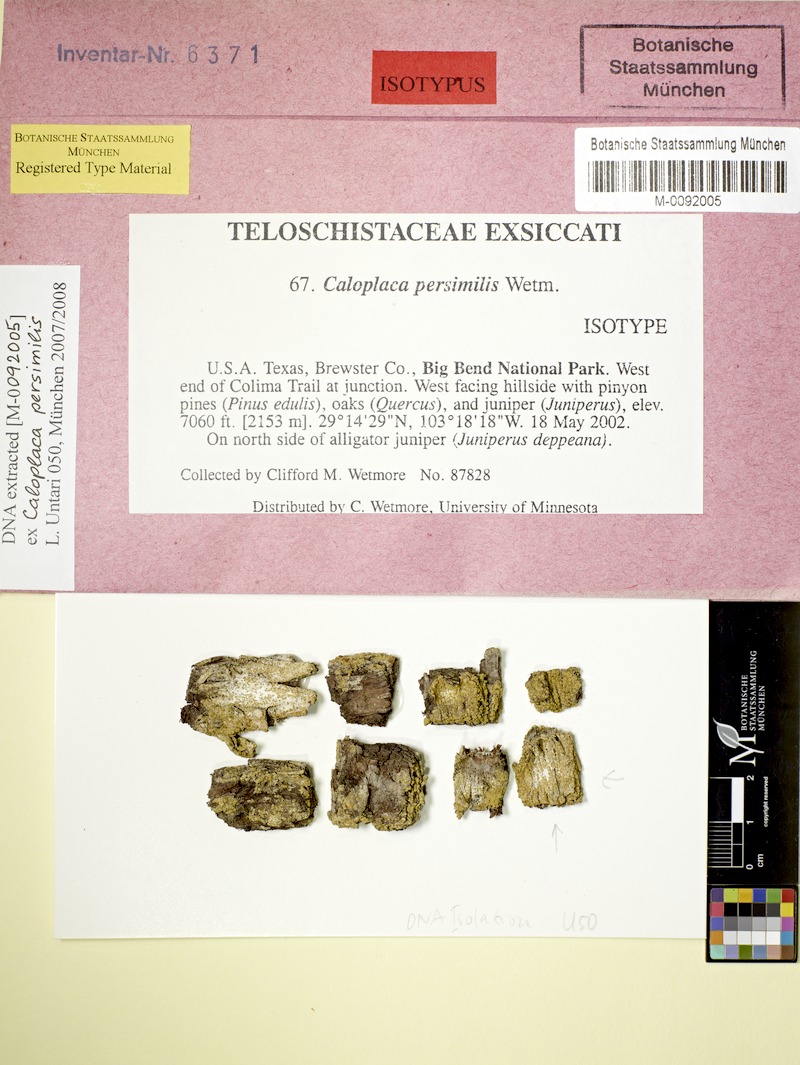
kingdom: Fungi
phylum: Ascomycota
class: Lecanoromycetes
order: Teloschistales
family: Teloschistaceae
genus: Gyalolechia
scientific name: Gyalolechia persimilis
